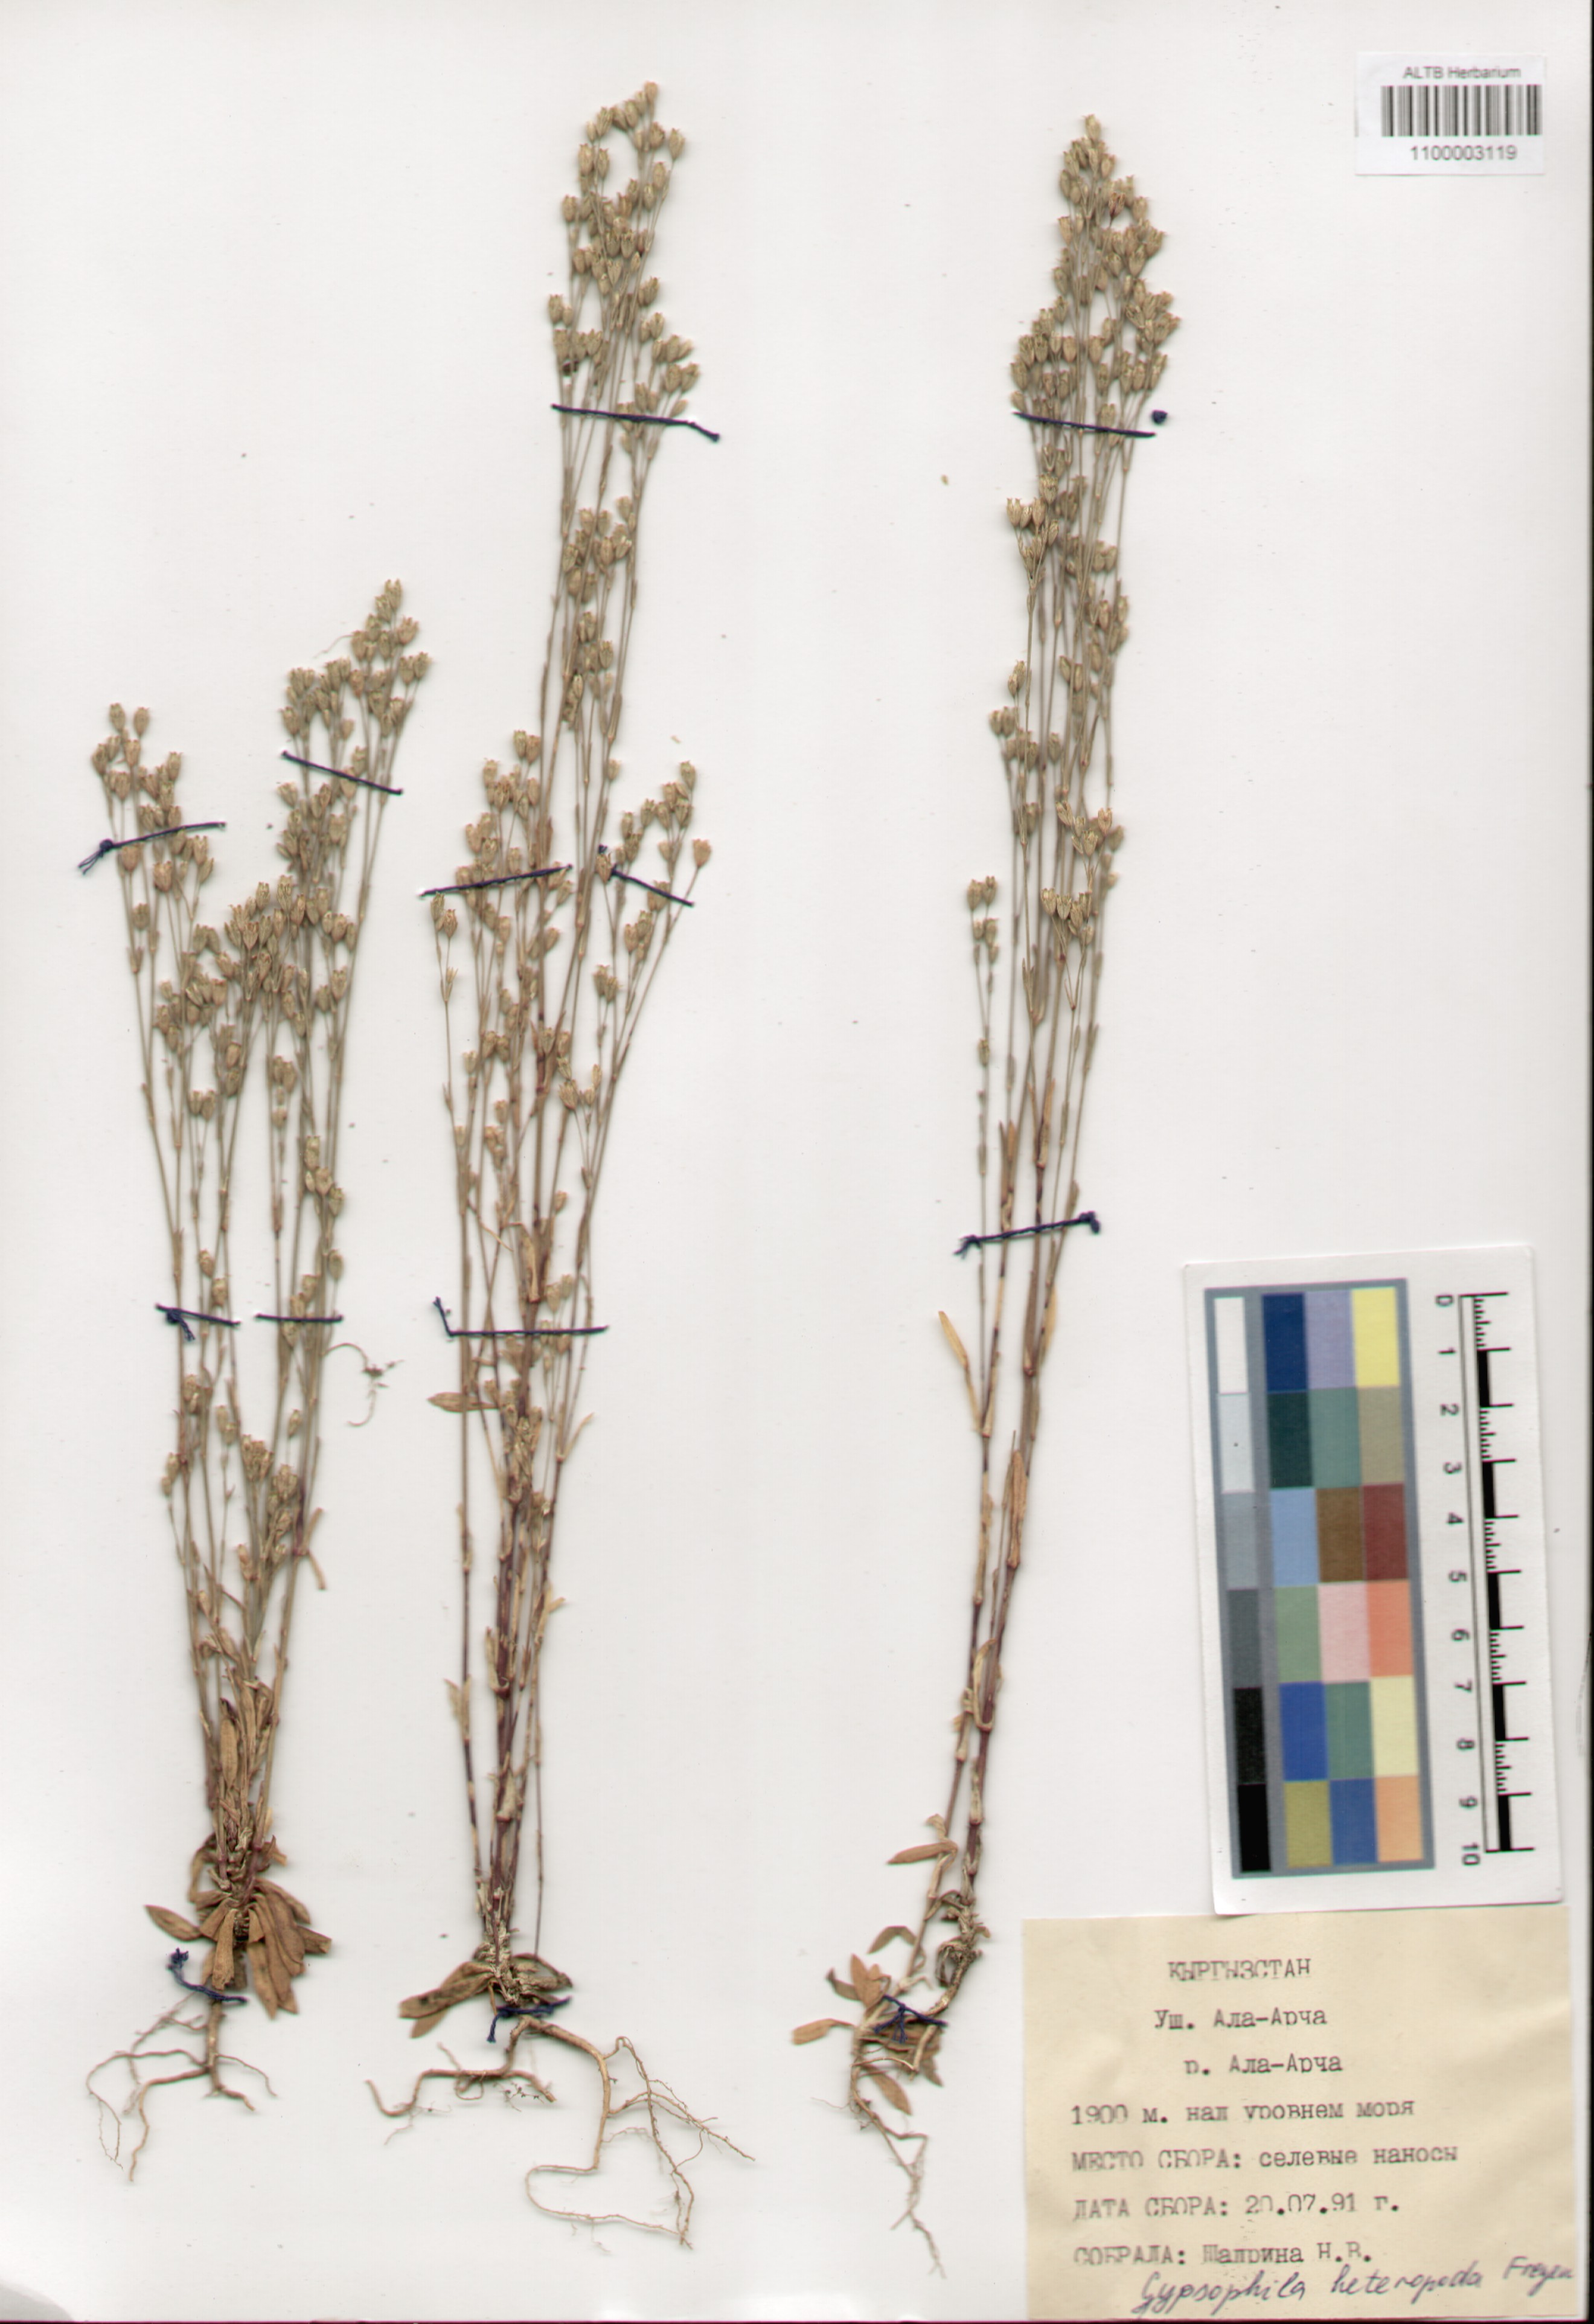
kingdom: Plantae
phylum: Tracheophyta
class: Magnoliopsida
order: Caryophyllales
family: Caryophyllaceae
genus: Gypsophila
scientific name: Gypsophila heteropoda
